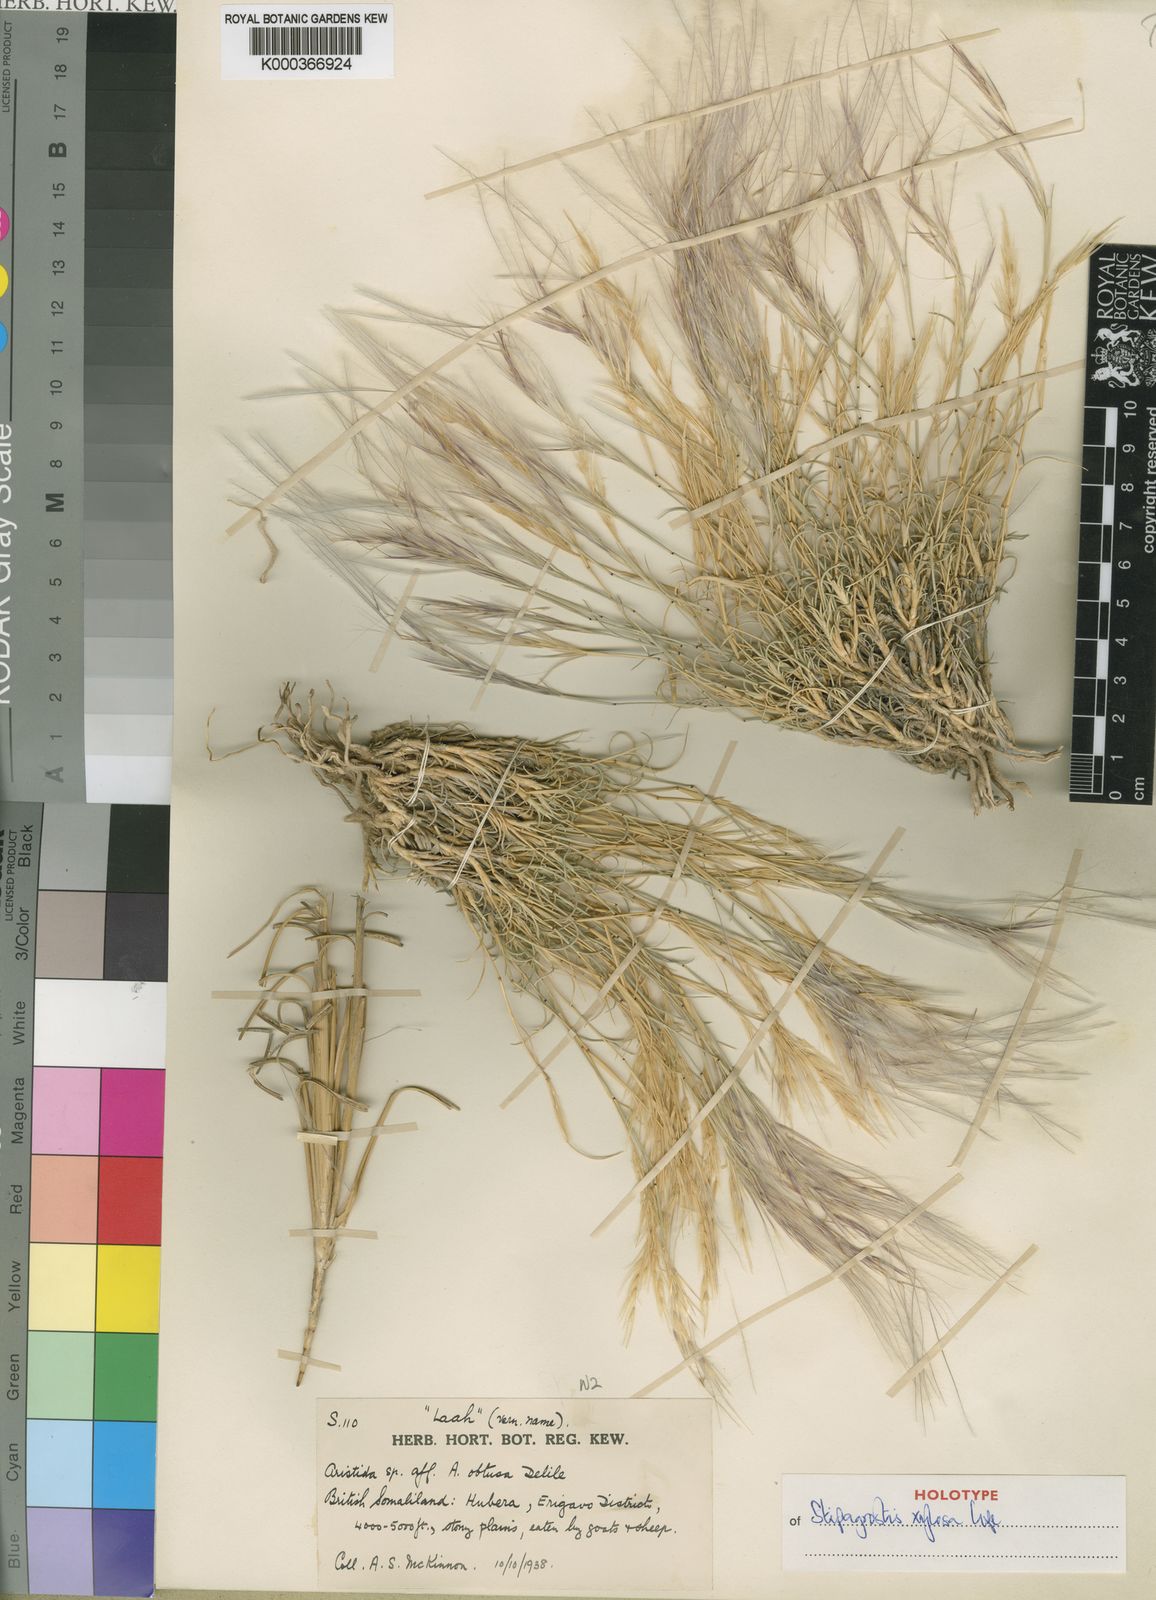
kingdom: Plantae
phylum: Tracheophyta
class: Liliopsida
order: Poales
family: Poaceae
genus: Stipagrostis
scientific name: Stipagrostis xylosa
